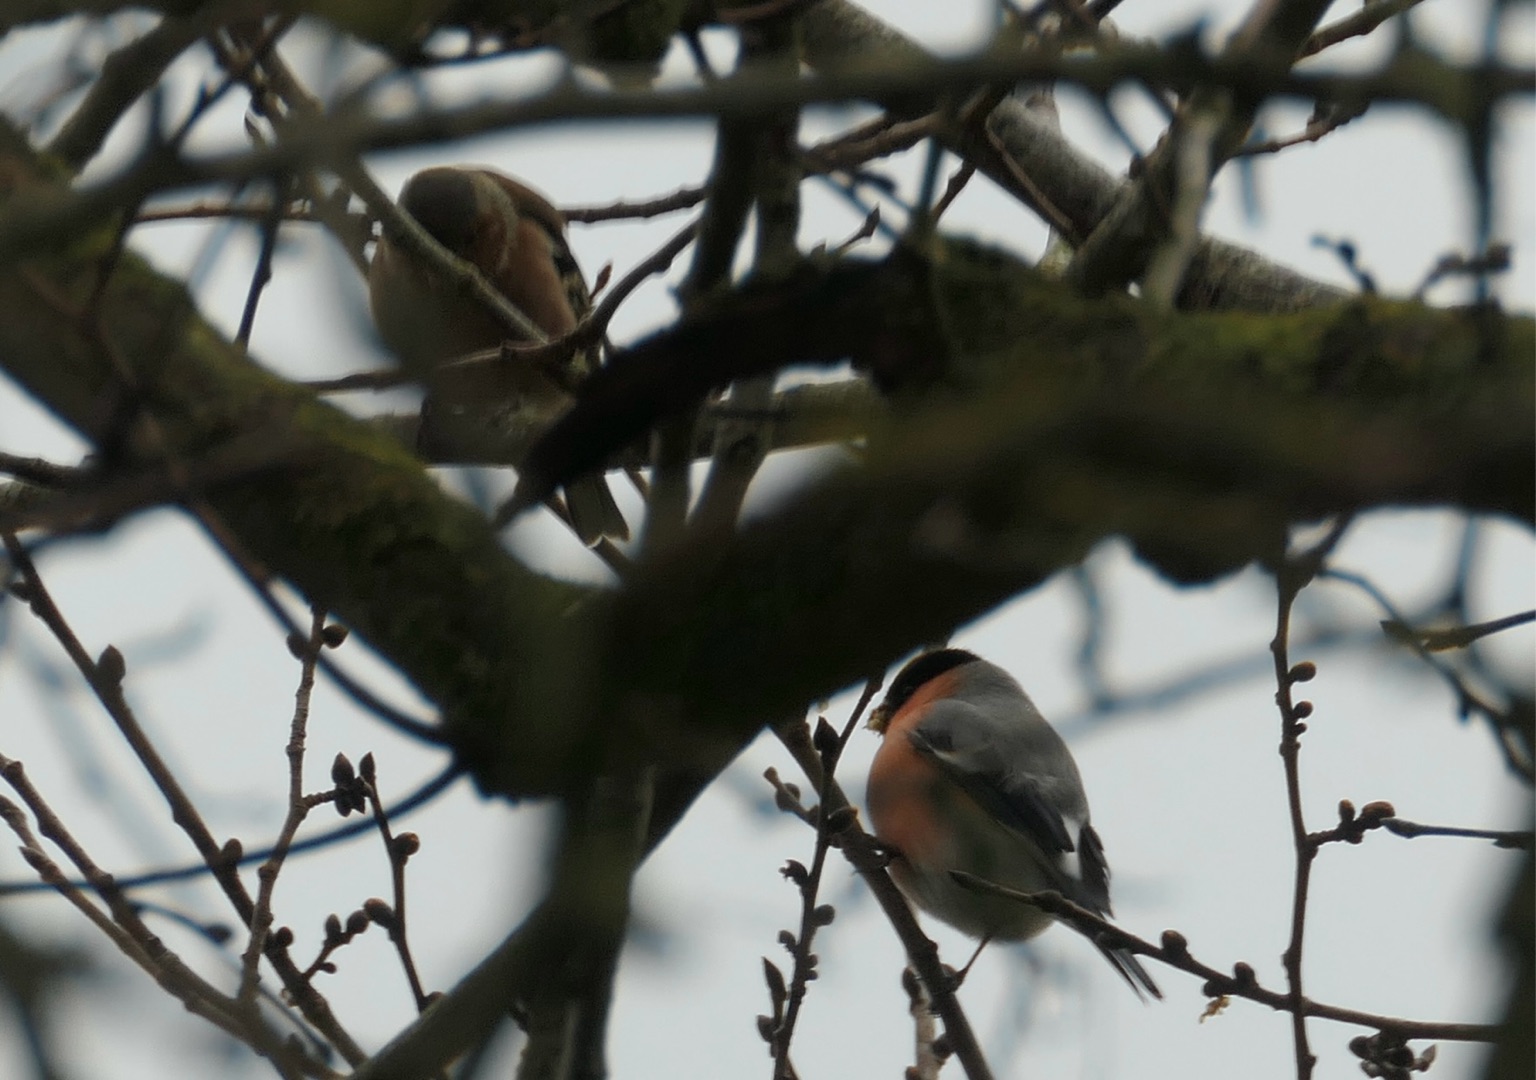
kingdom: Animalia
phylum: Chordata
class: Aves
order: Passeriformes
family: Fringillidae
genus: Pyrrhula
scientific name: Pyrrhula pyrrhula
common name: Dompap
